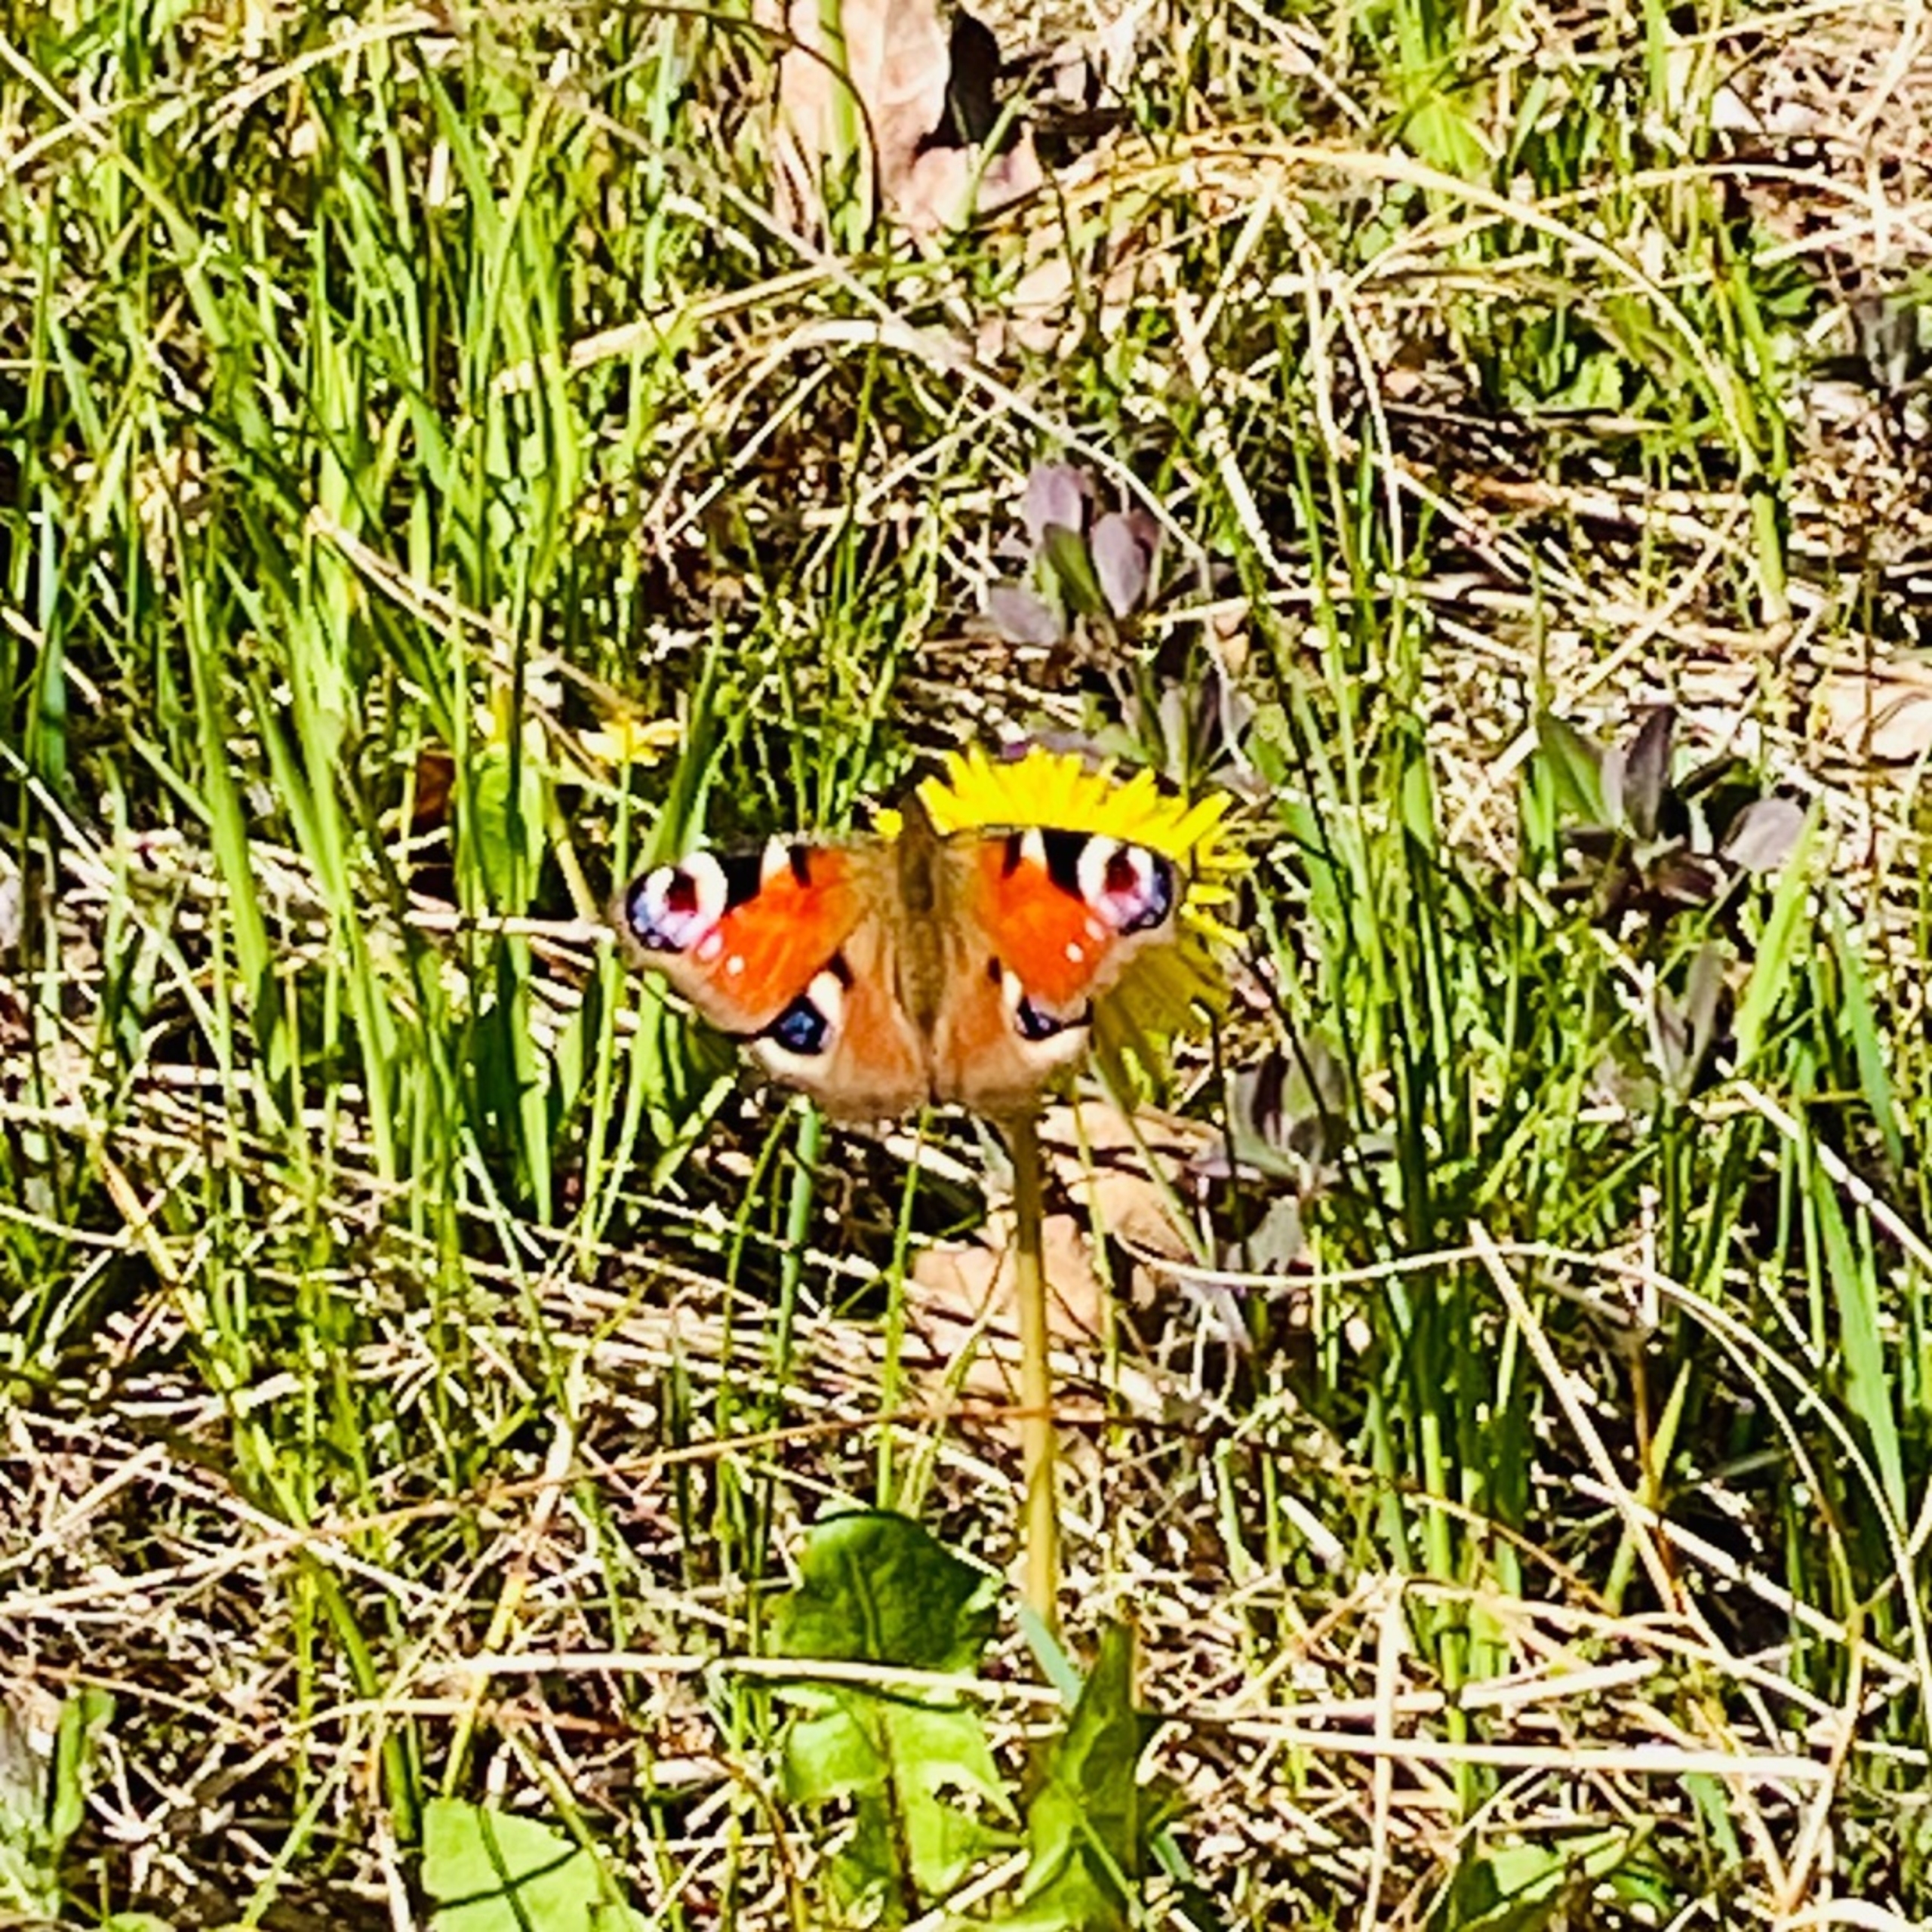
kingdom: Animalia
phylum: Arthropoda
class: Insecta
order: Lepidoptera
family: Nymphalidae
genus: Aglais
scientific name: Aglais io
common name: Dagpåfugleøje
